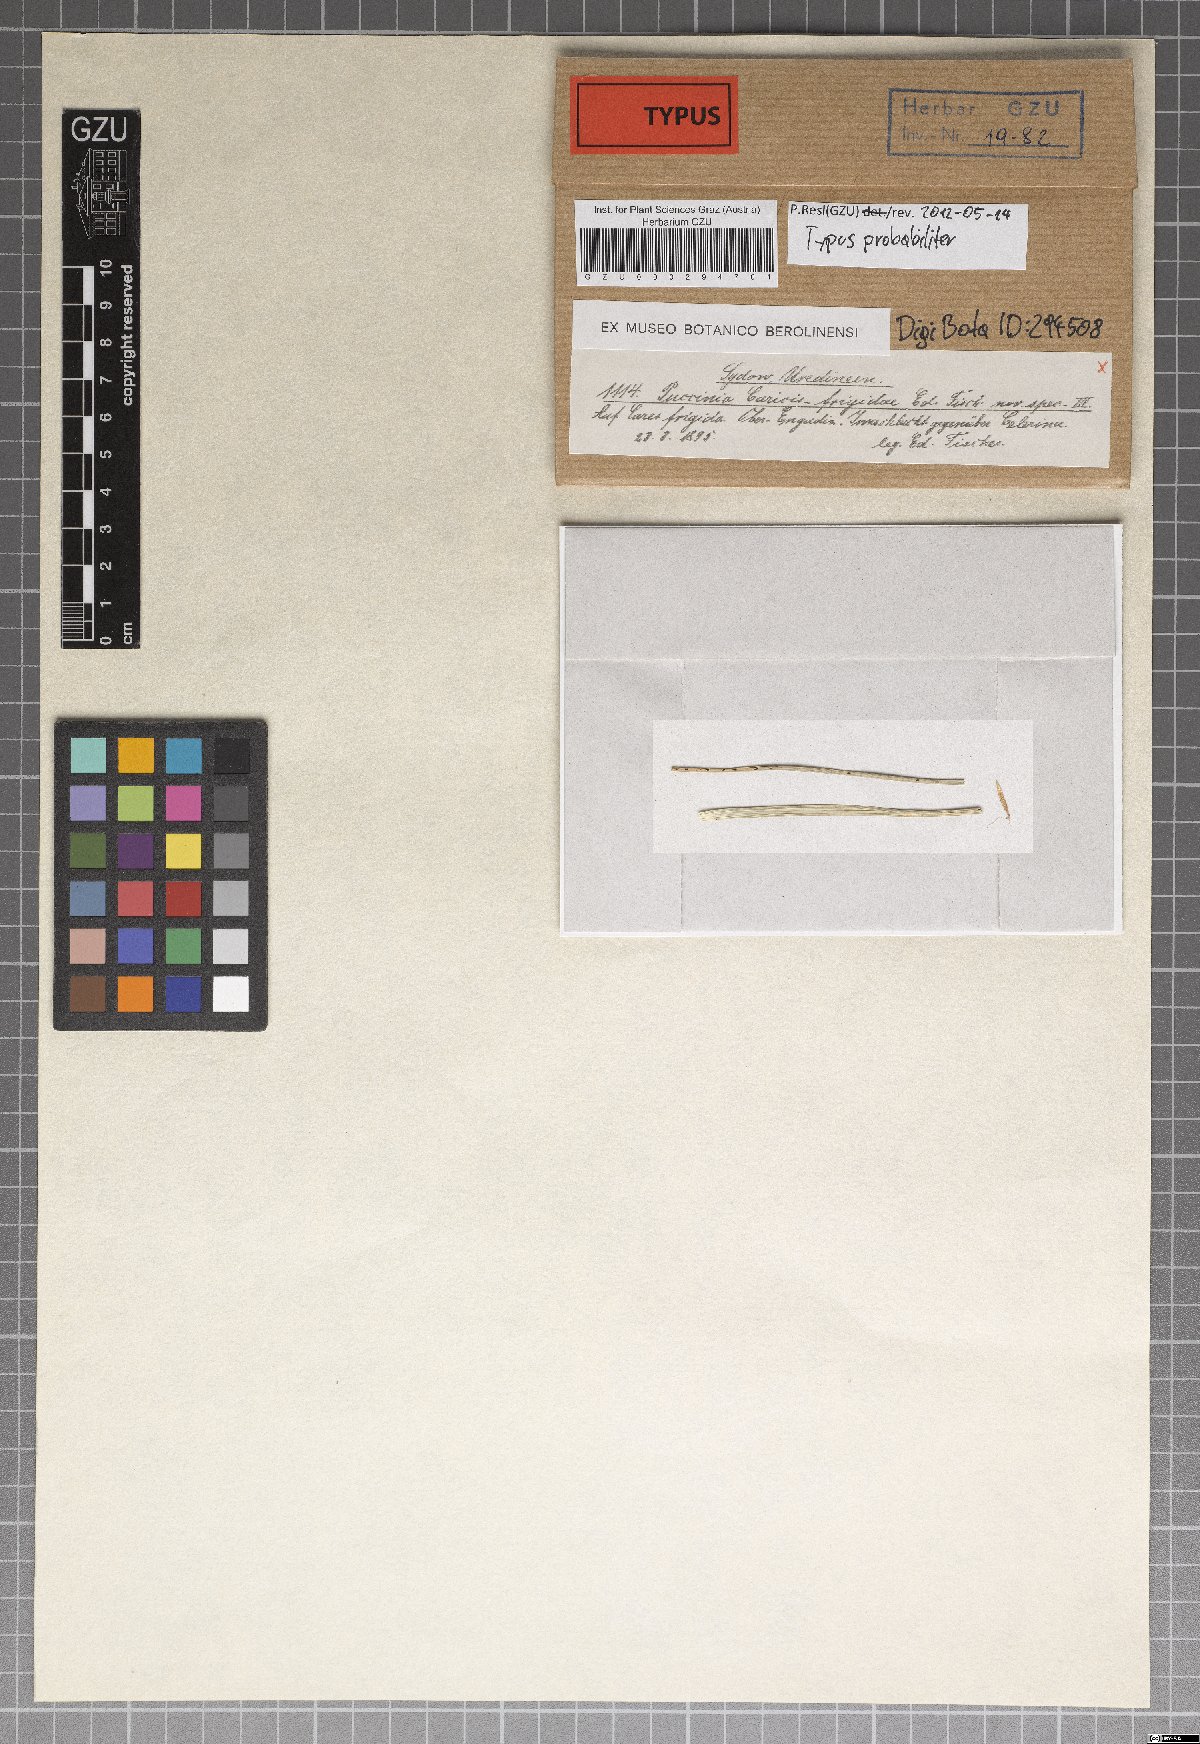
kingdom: Fungi
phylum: Basidiomycota
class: Pucciniomycetes
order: Pucciniales
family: Pucciniaceae
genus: Puccinia
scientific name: Puccinia caricis-frigidae
